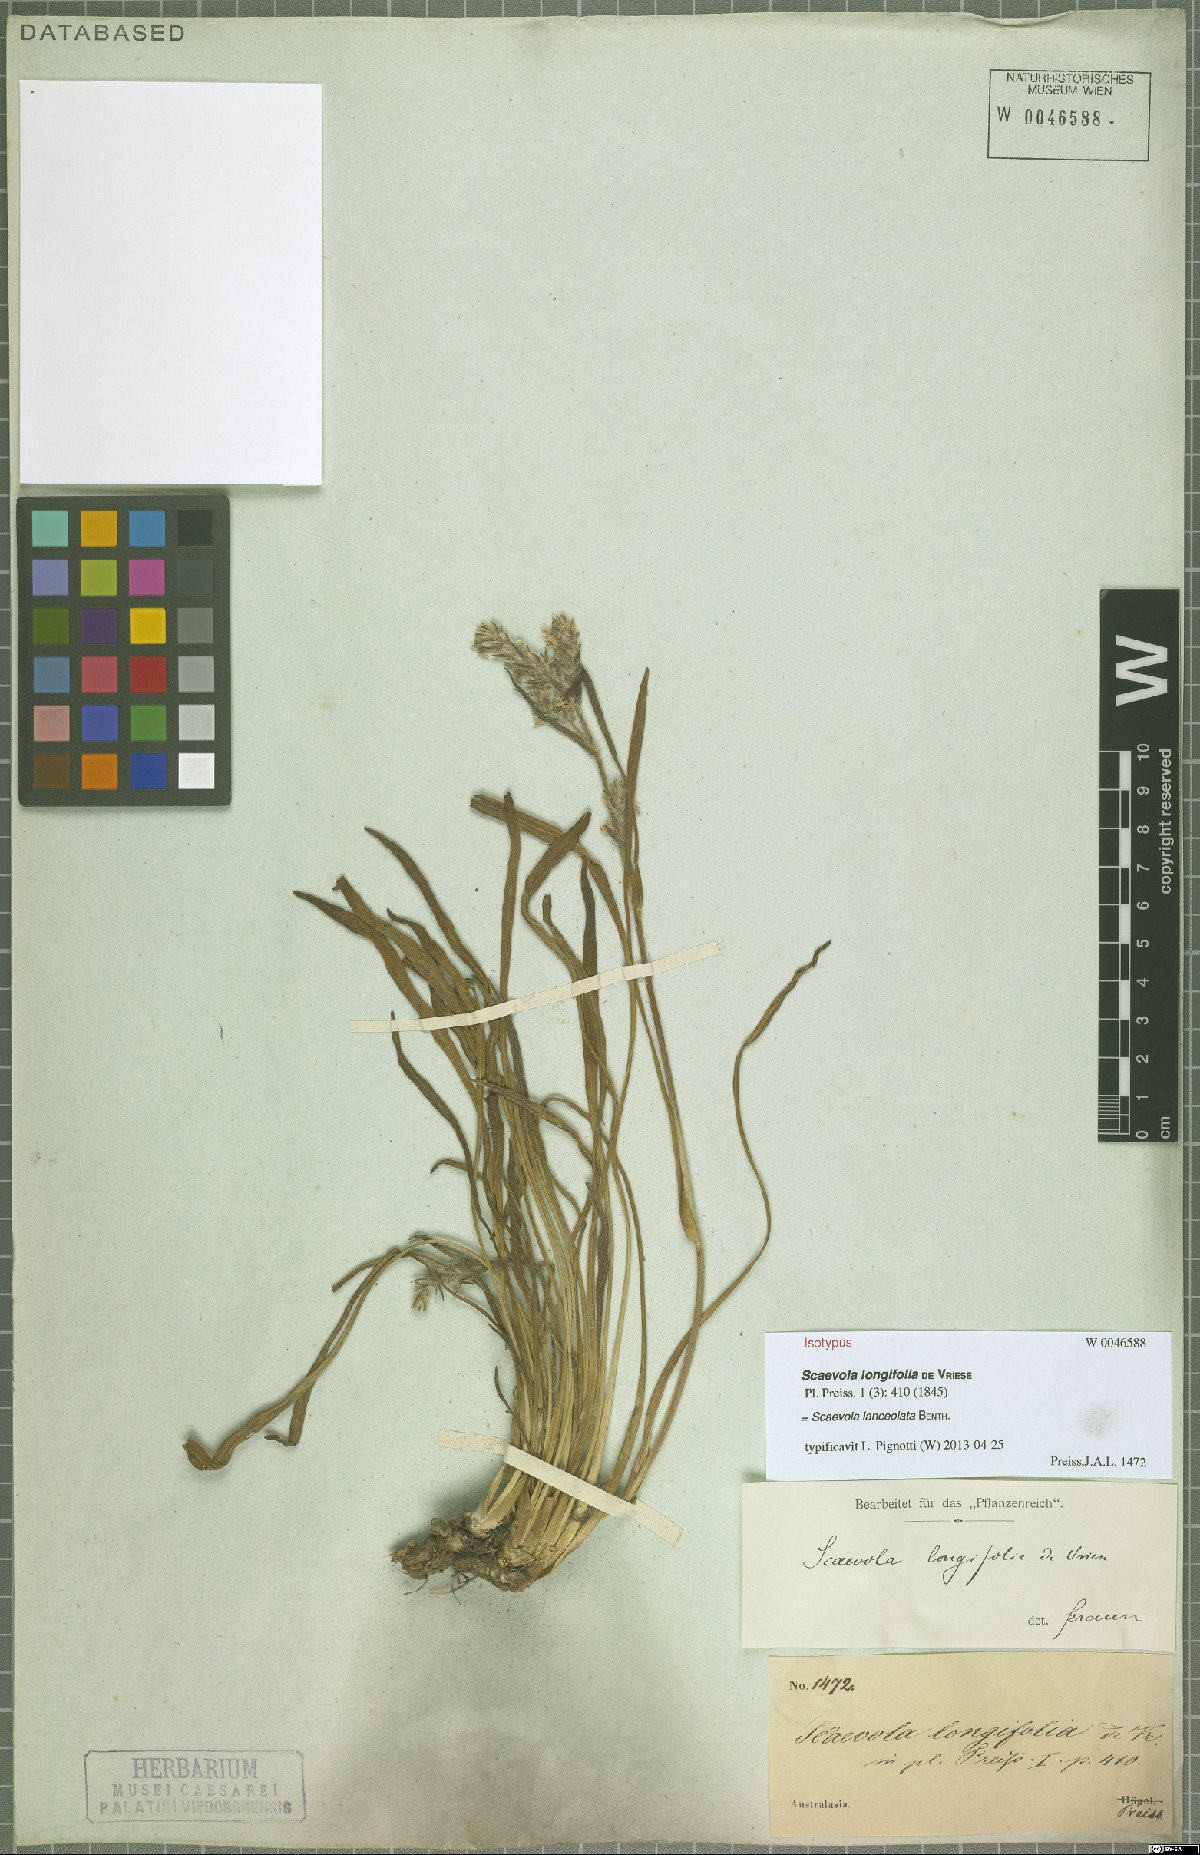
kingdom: Plantae
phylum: Tracheophyta
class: Magnoliopsida
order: Asterales
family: Goodeniaceae
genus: Scaevola
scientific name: Scaevola lanceolata
